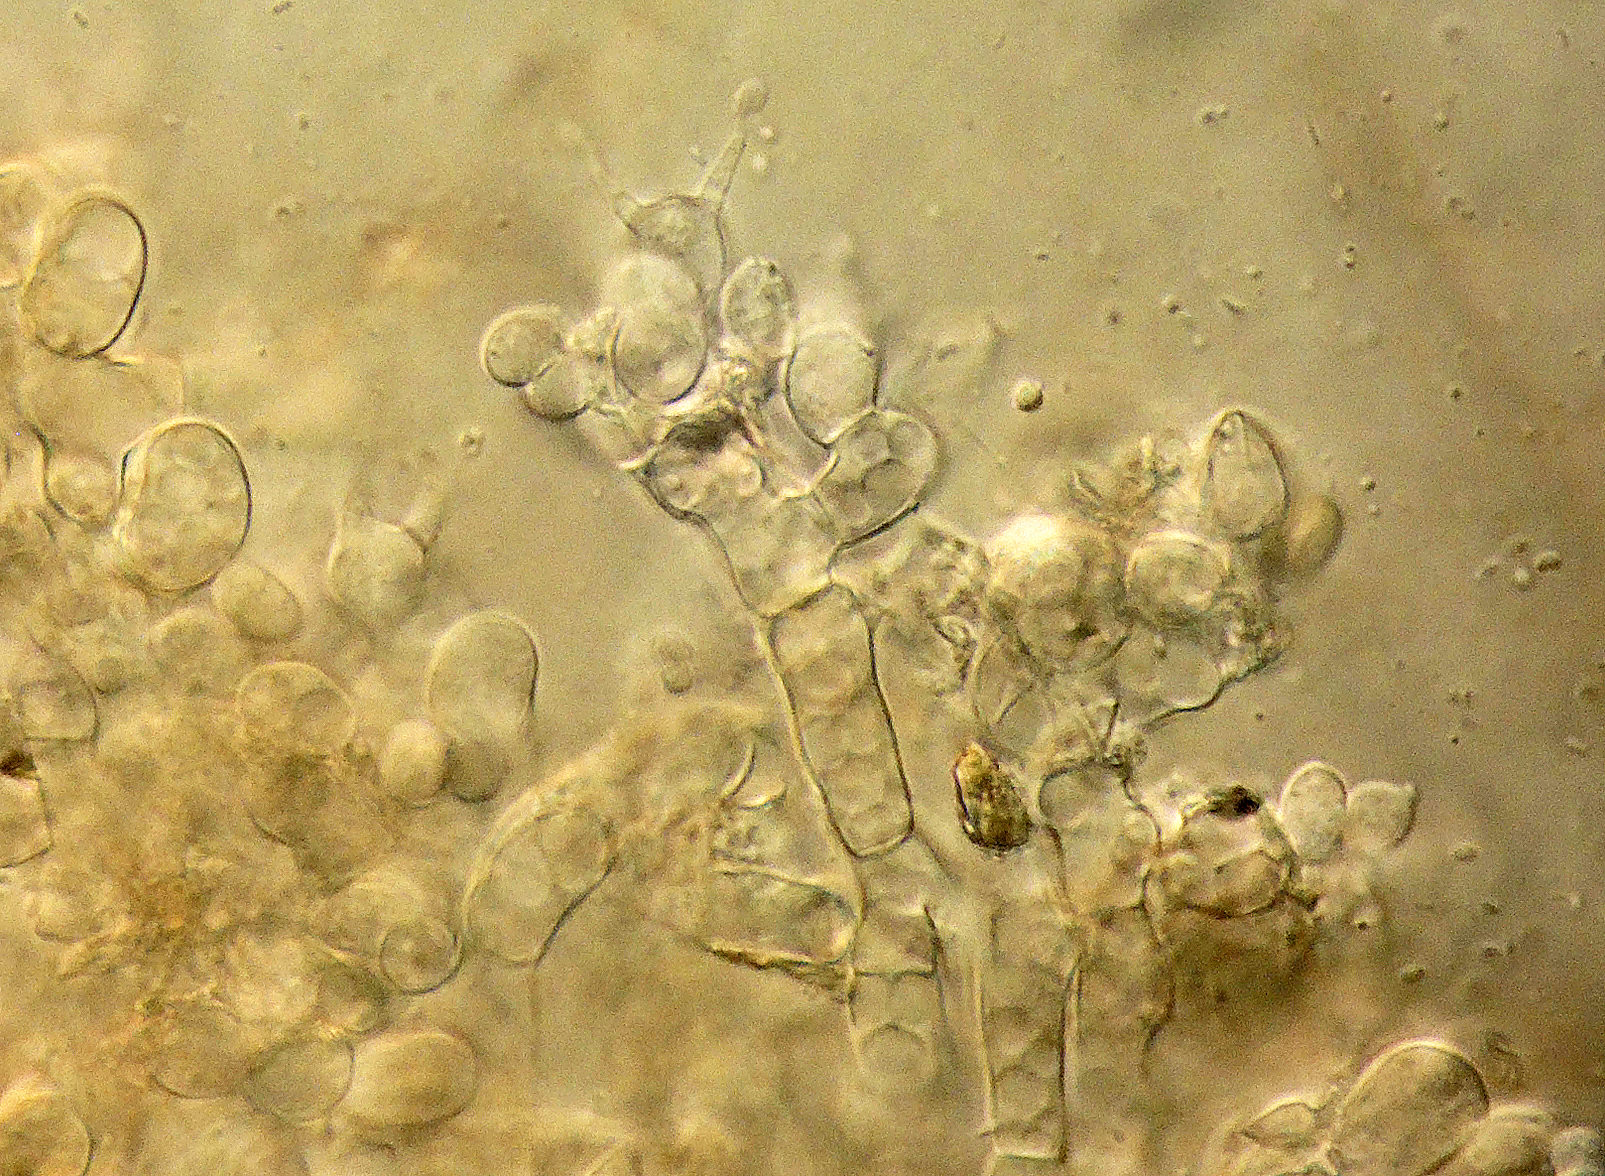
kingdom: Fungi
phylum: Basidiomycota
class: Agaricomycetes
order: Corticiales
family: Corticiaceae
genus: Laetisaria
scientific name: Laetisaria
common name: rødtråd
